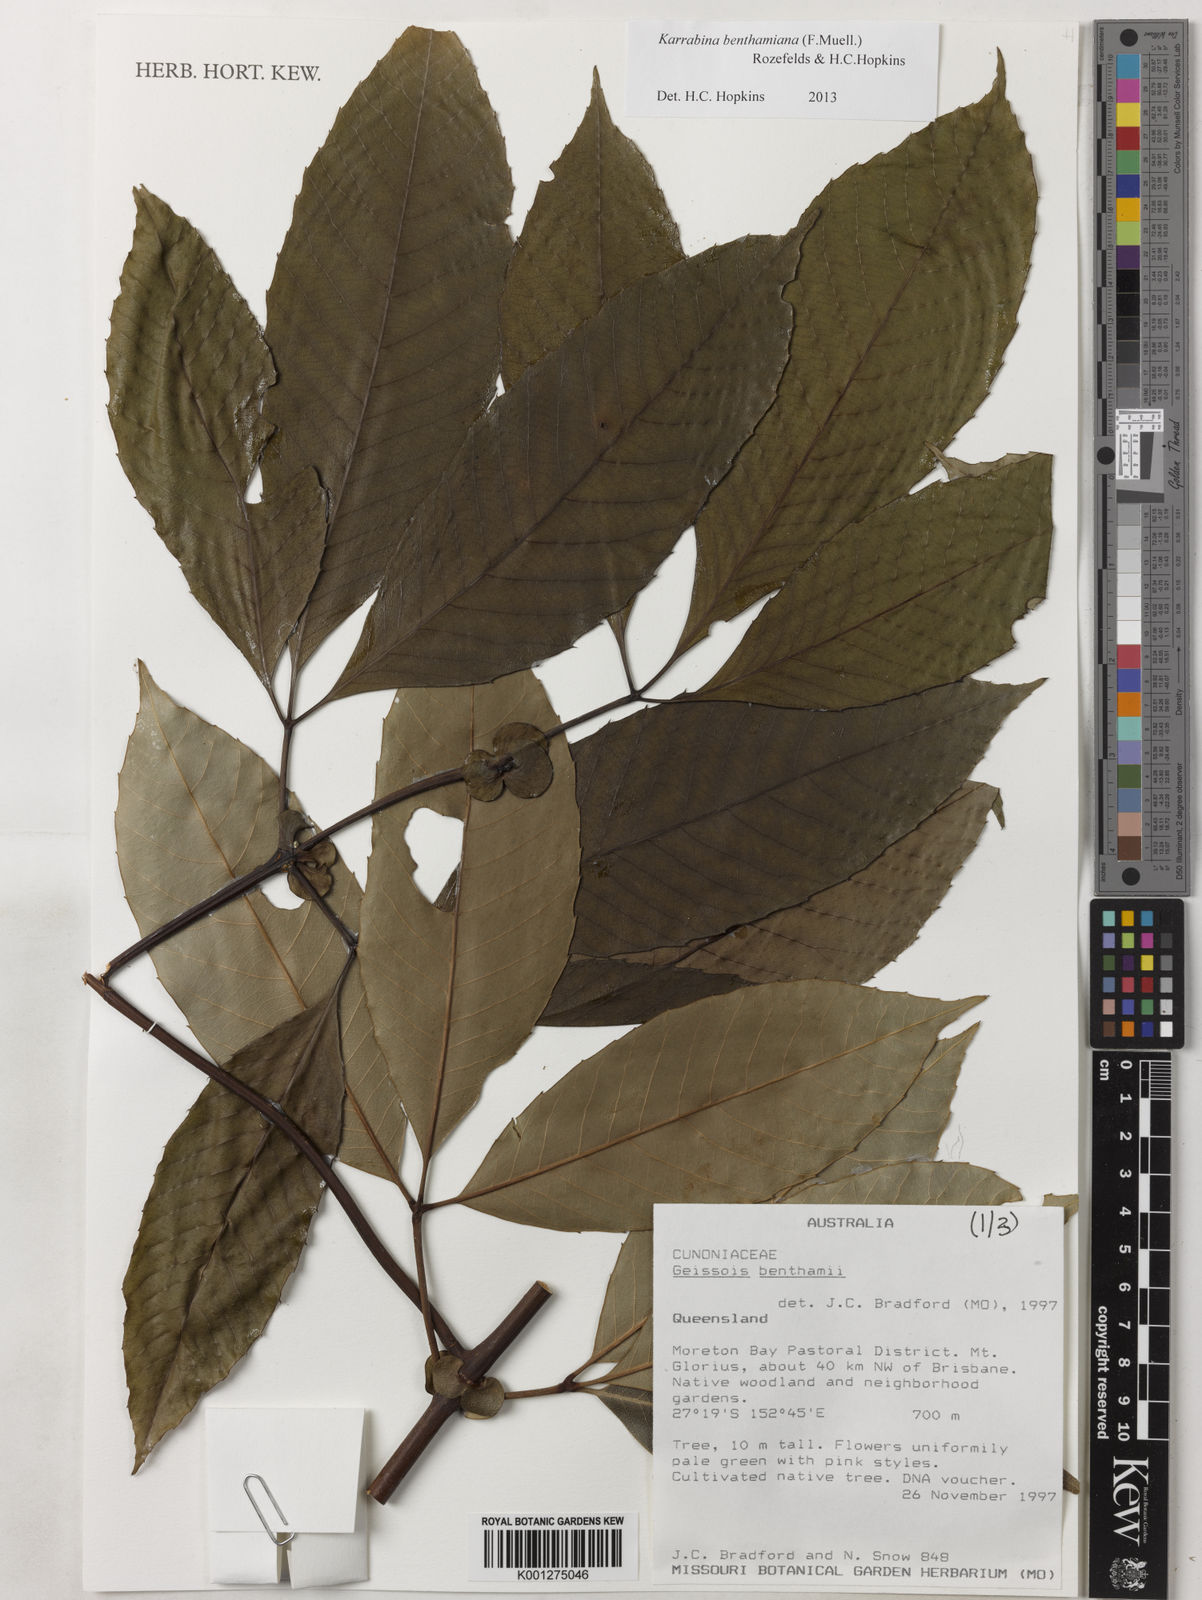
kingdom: Plantae
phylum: Tracheophyta
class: Magnoliopsida
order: Oxalidales
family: Cunoniaceae
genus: Karrabina
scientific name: Karrabina benthamiana
